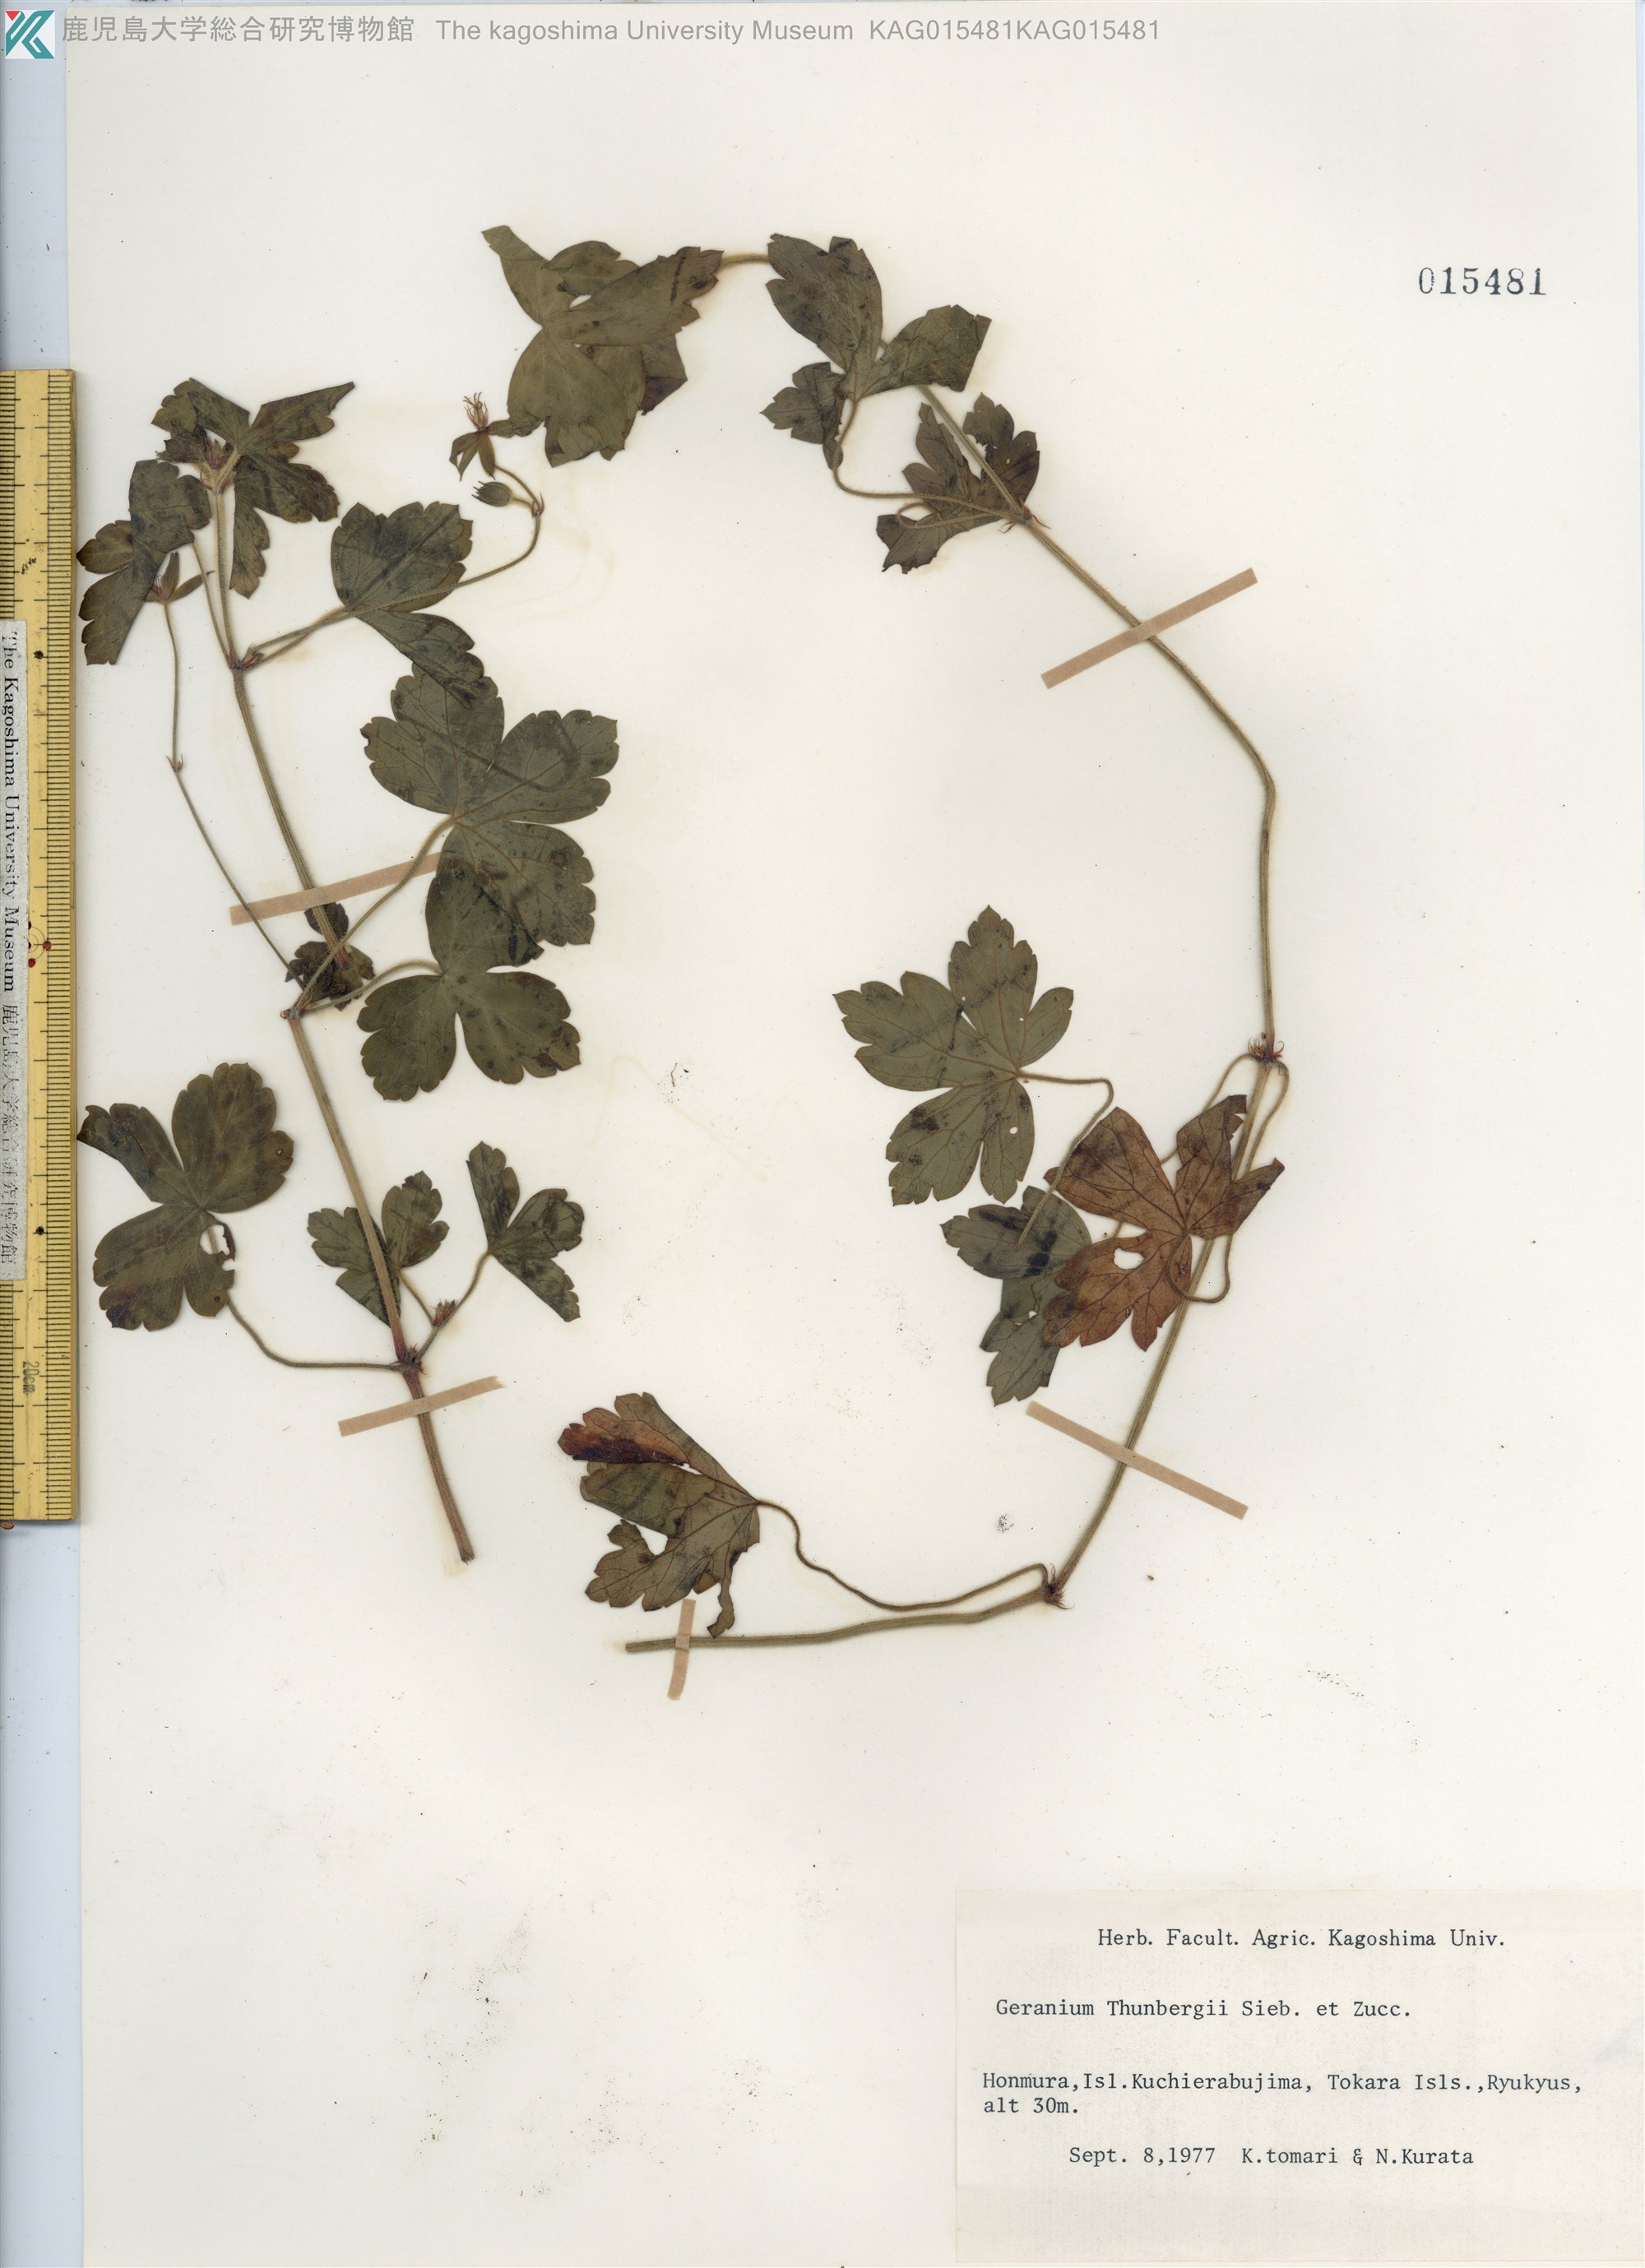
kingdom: Plantae
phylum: Tracheophyta
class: Magnoliopsida
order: Geraniales
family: Geraniaceae
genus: Geranium
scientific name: Geranium thunbergii
